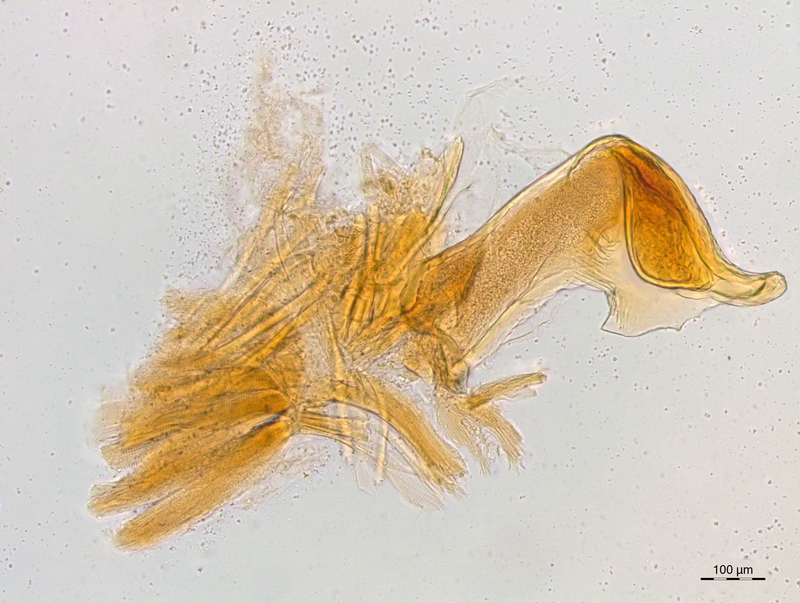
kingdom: Animalia
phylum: Arthropoda
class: Diplopoda
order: Chordeumatida
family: Craspedosomatidae
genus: Craspedosoma
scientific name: Craspedosoma rawlinsii
